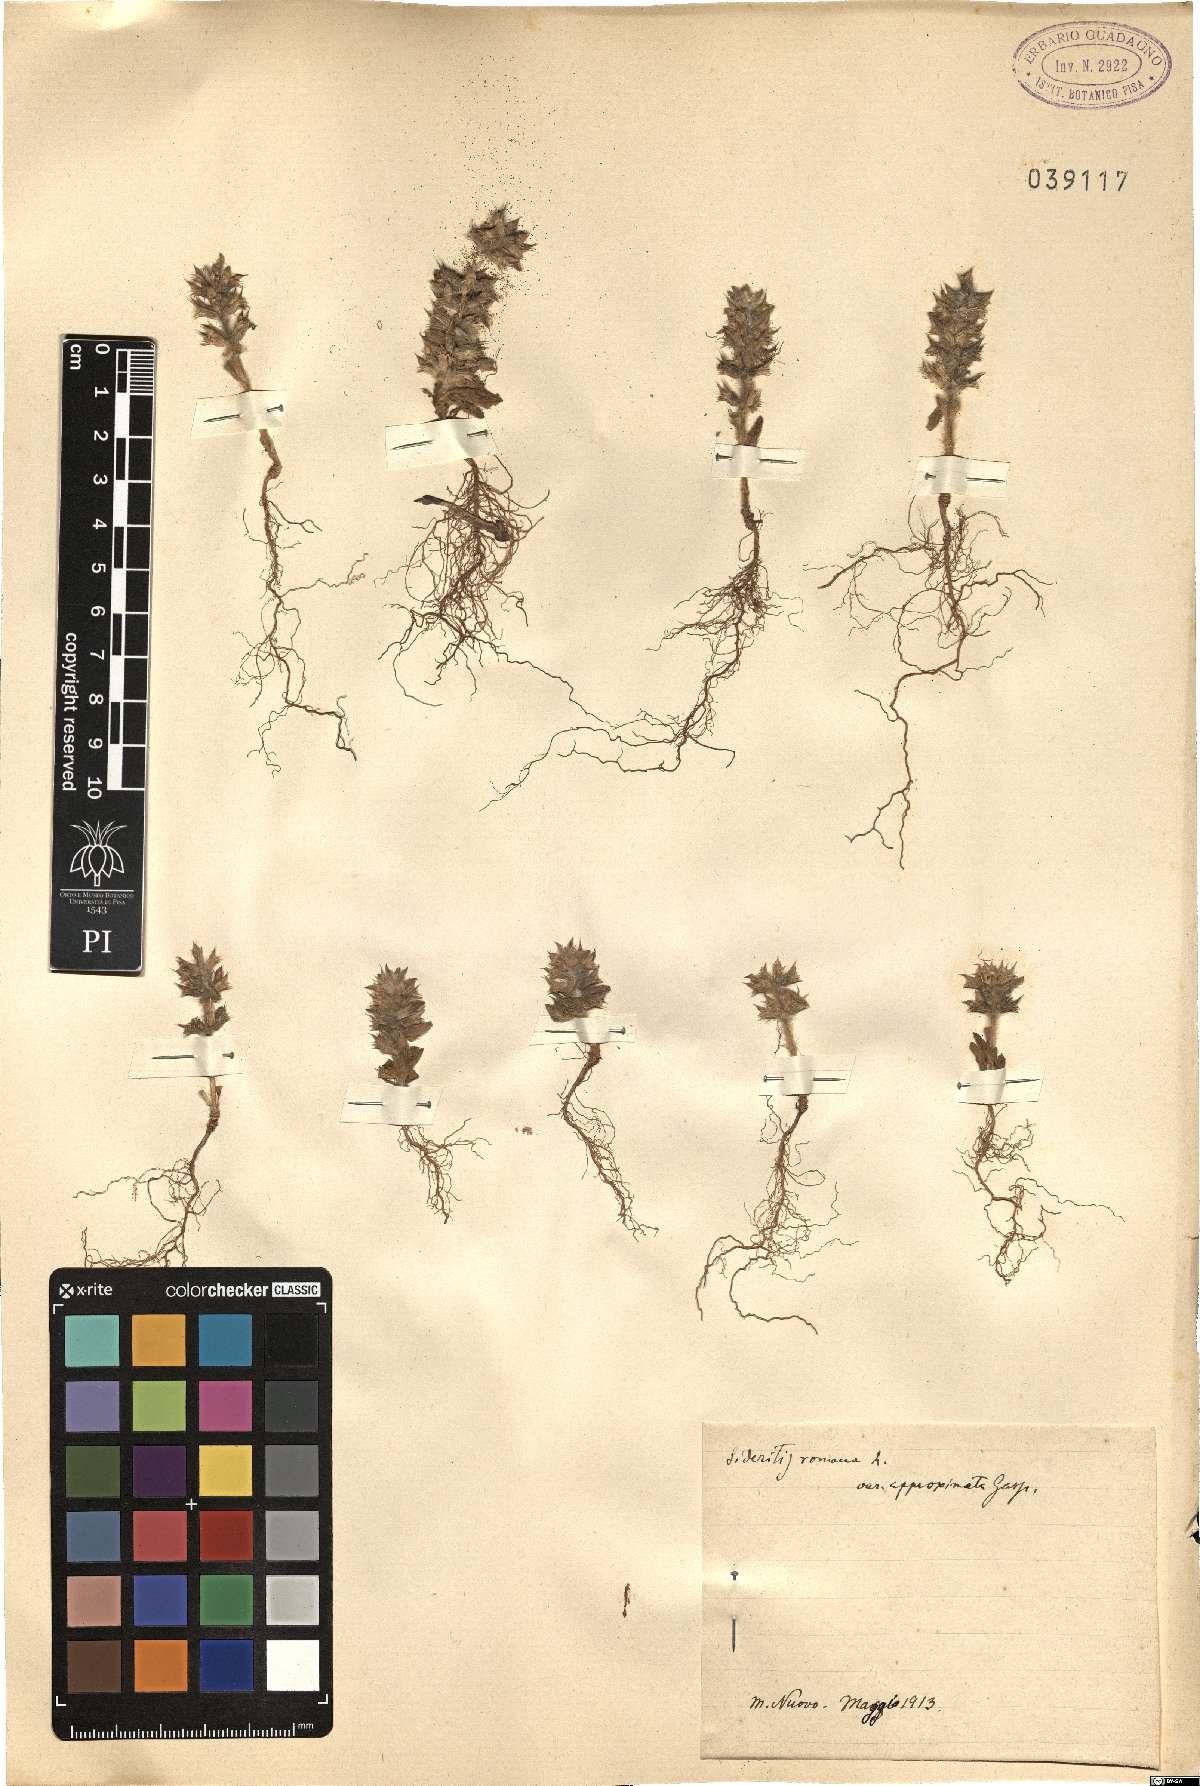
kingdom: Plantae
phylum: Tracheophyta
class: Magnoliopsida
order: Lamiales
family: Lamiaceae
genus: Sideritis
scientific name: Sideritis romana
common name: Simplebeak ironwort
